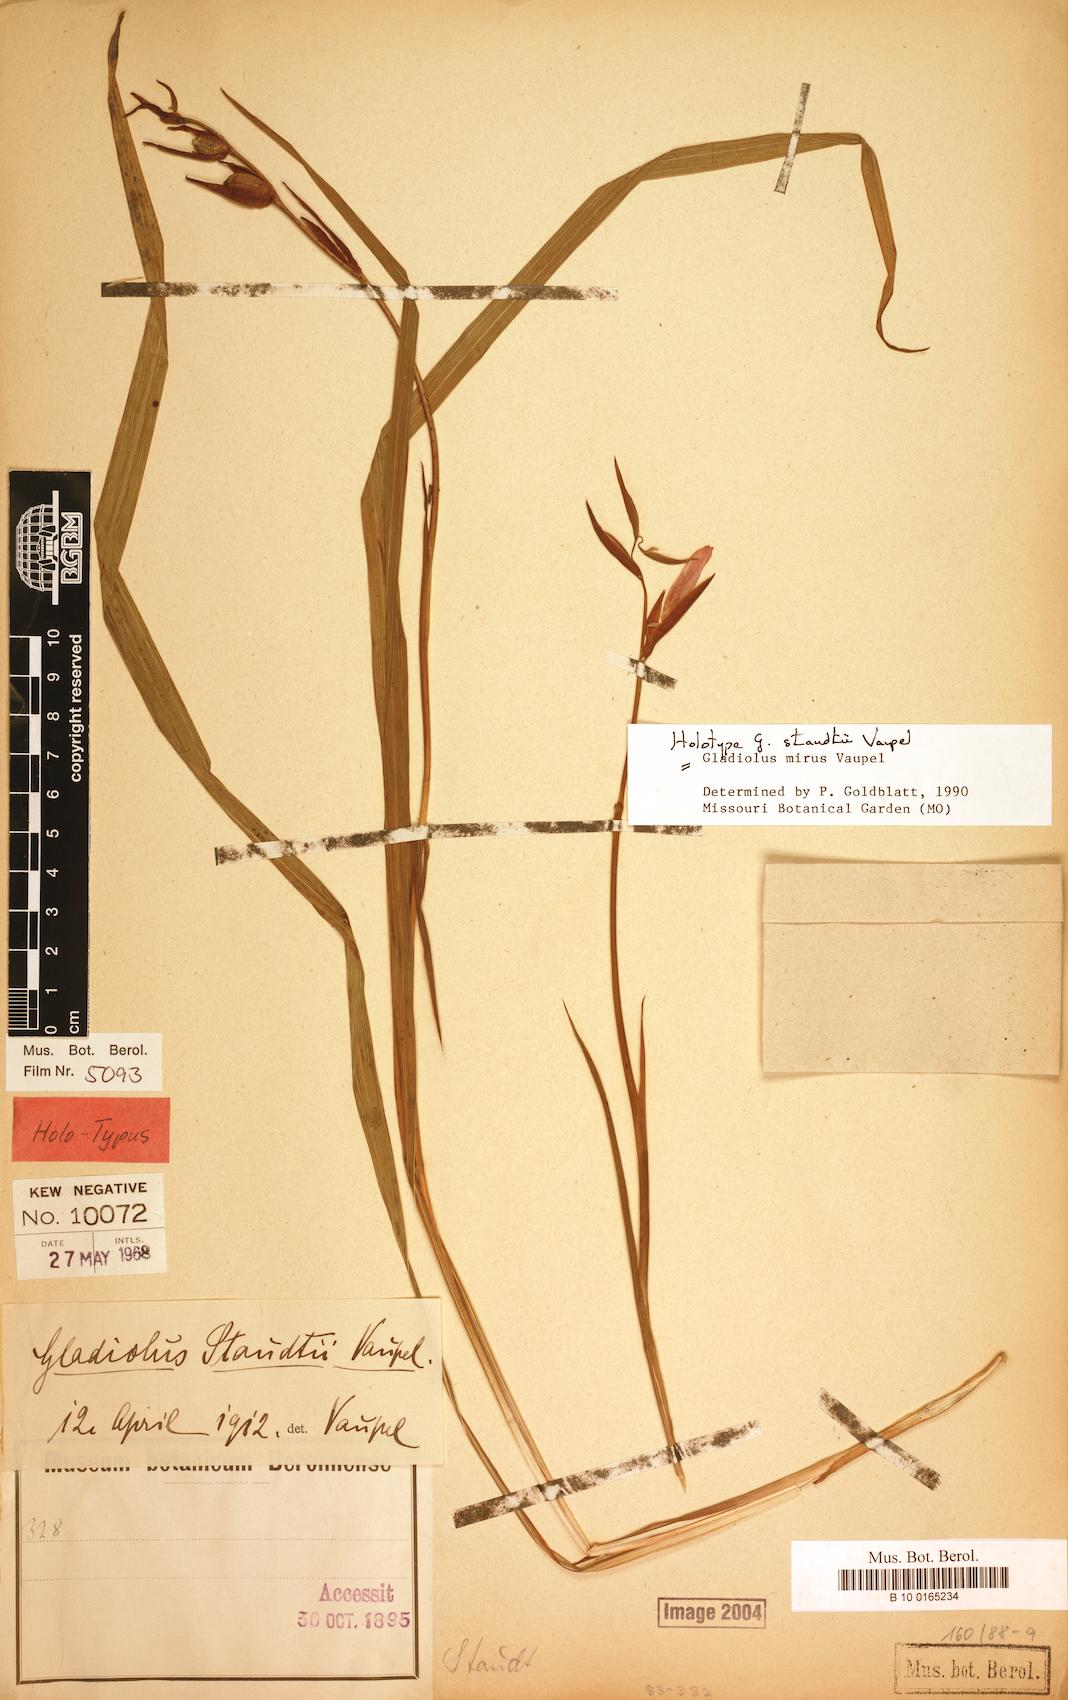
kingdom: Plantae
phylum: Tracheophyta
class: Liliopsida
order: Asparagales
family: Iridaceae
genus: Gladiolus
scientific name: Gladiolus mirus
